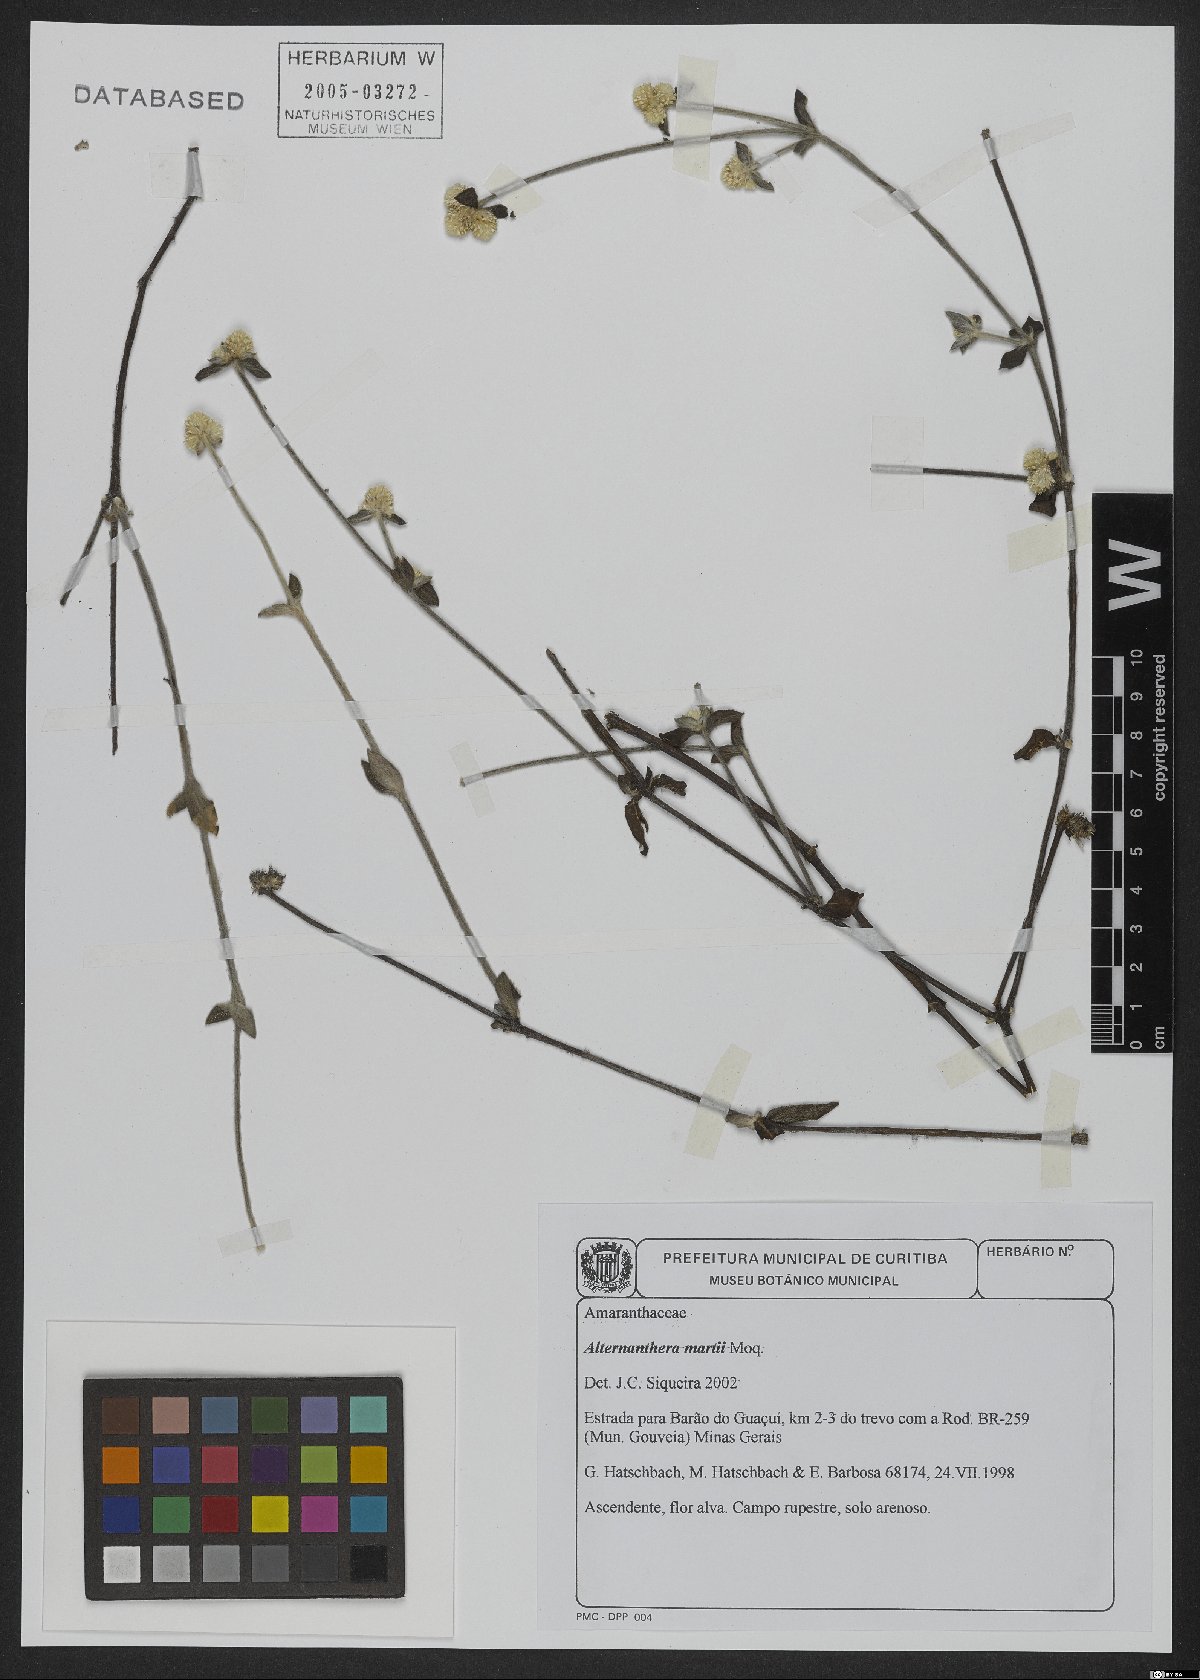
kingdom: Plantae
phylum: Tracheophyta
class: Magnoliopsida
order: Caryophyllales
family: Amaranthaceae
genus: Alternanthera
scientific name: Alternanthera martii
